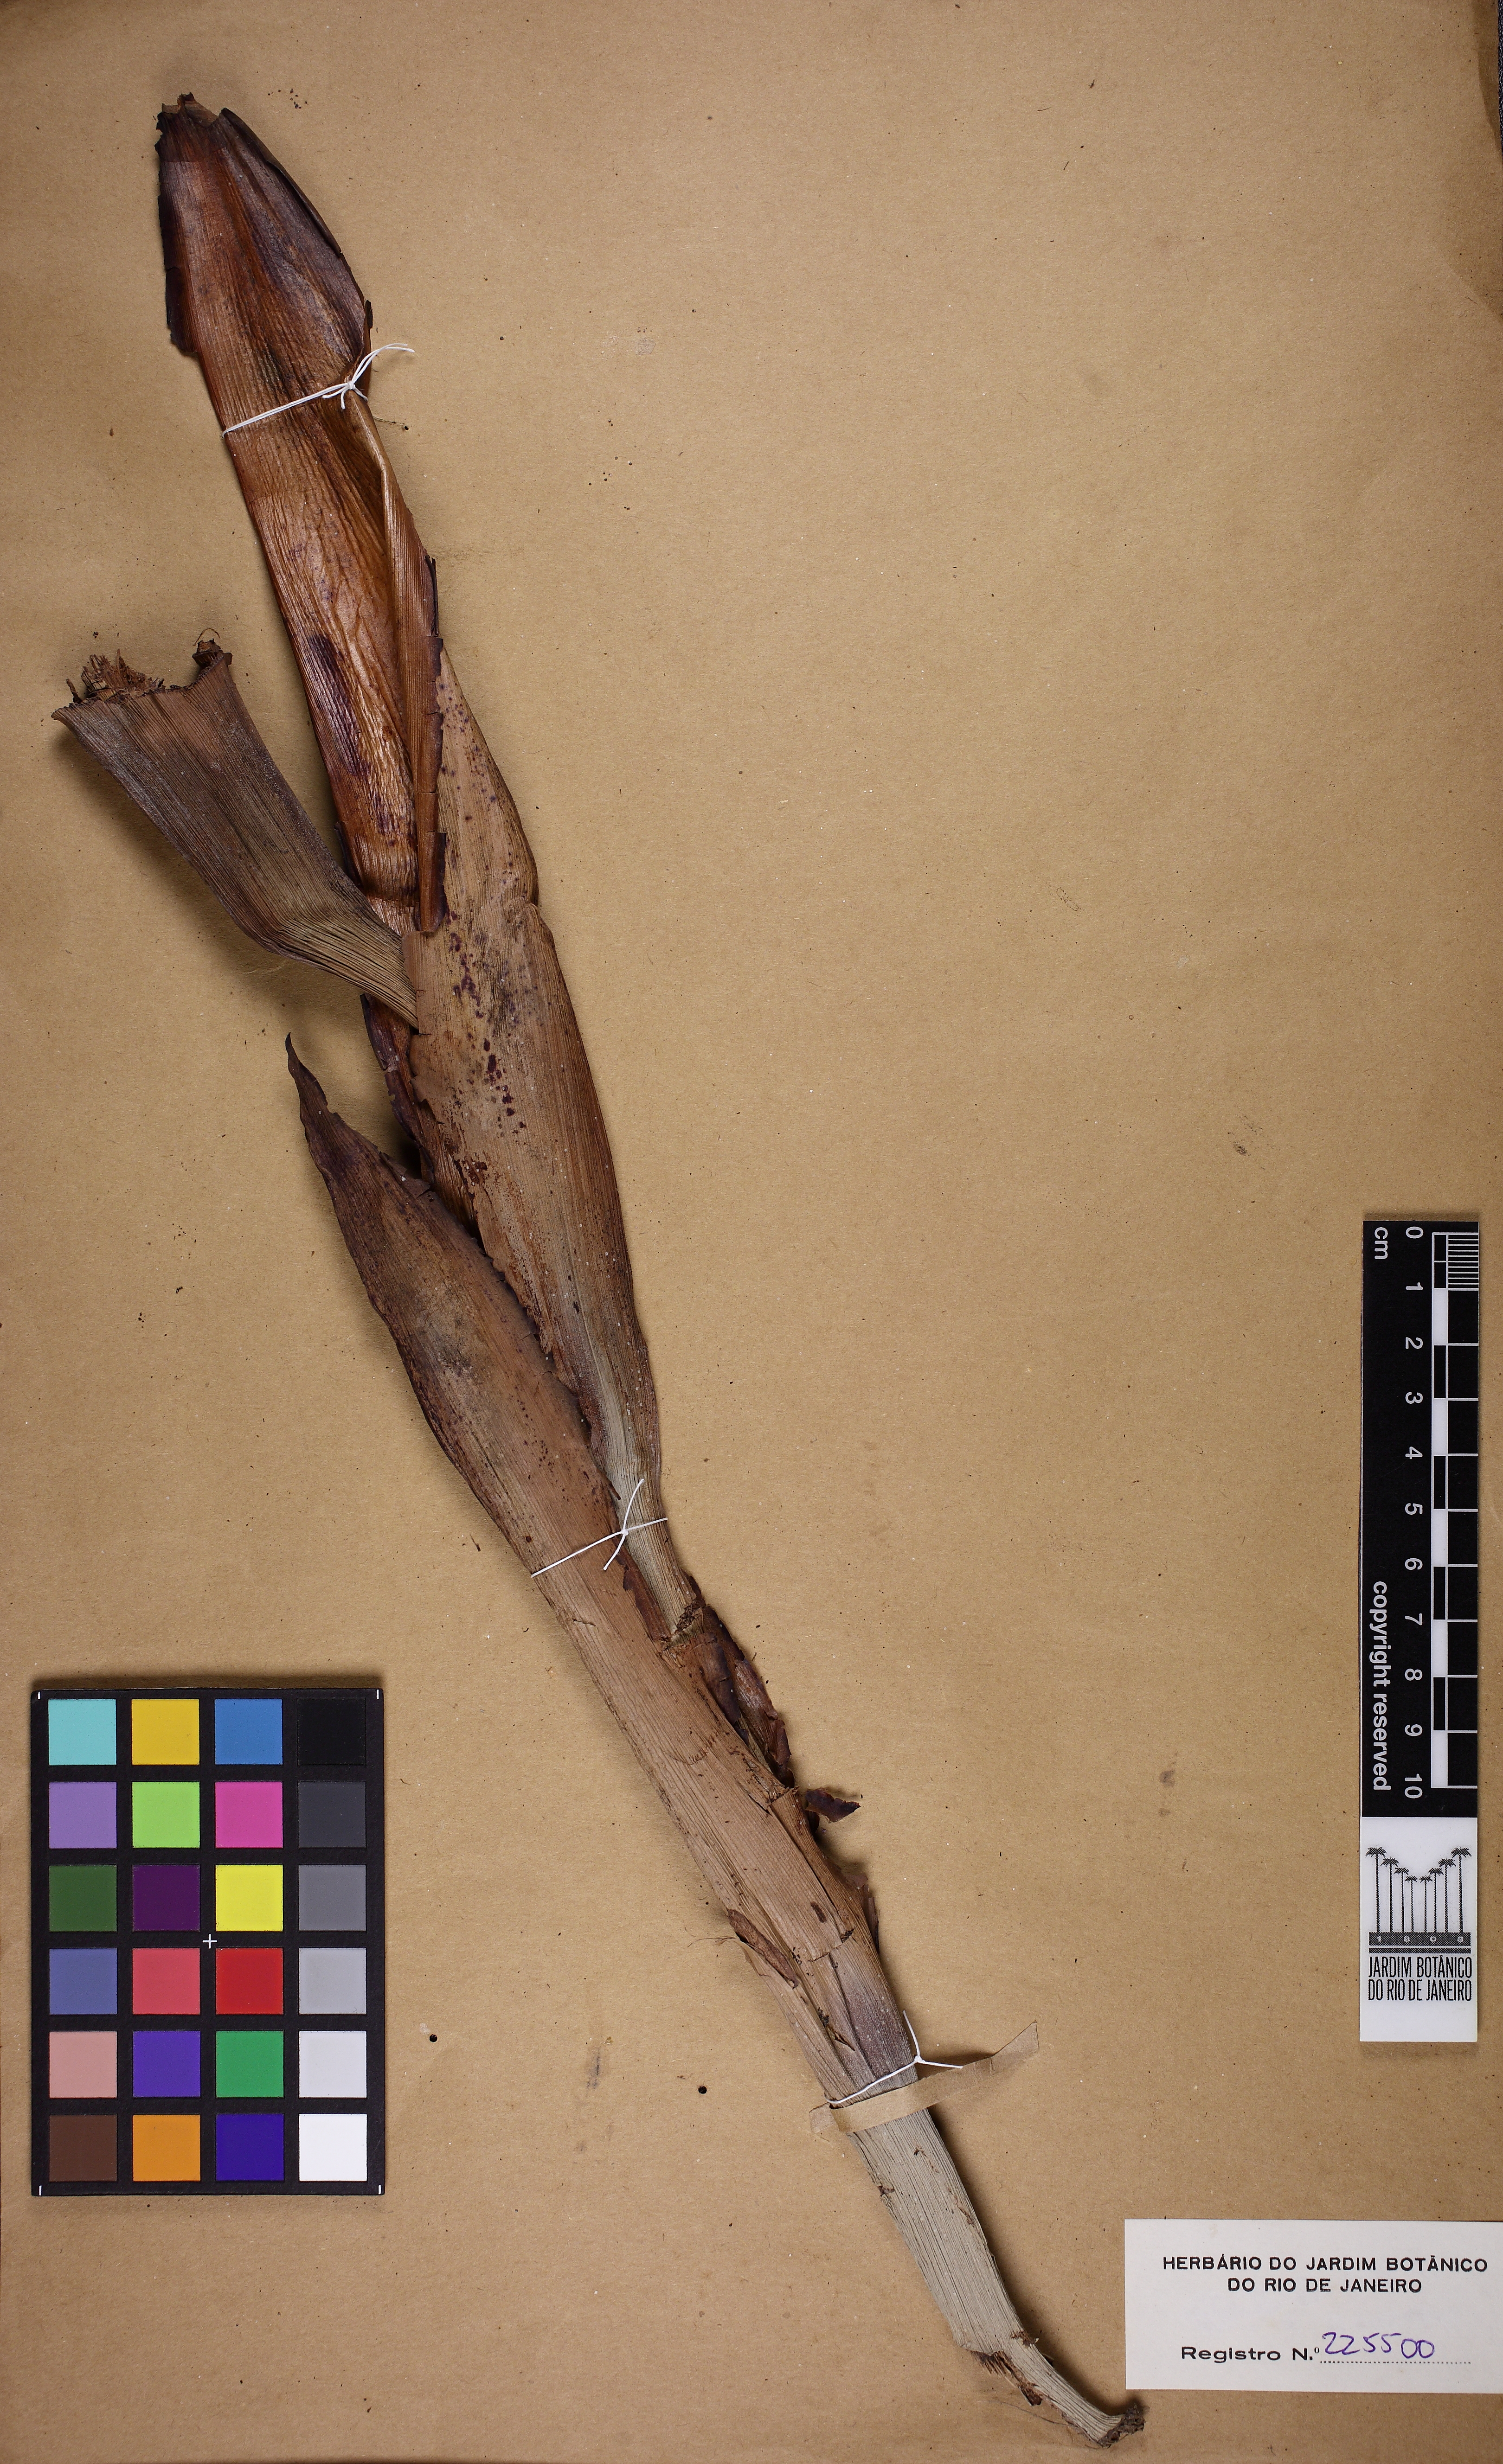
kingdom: Plantae
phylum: Tracheophyta
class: Liliopsida
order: Zingiberales
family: Strelitziaceae
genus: Strelitzia
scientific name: Strelitzia nicolai
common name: Bird-of-paradise tree
